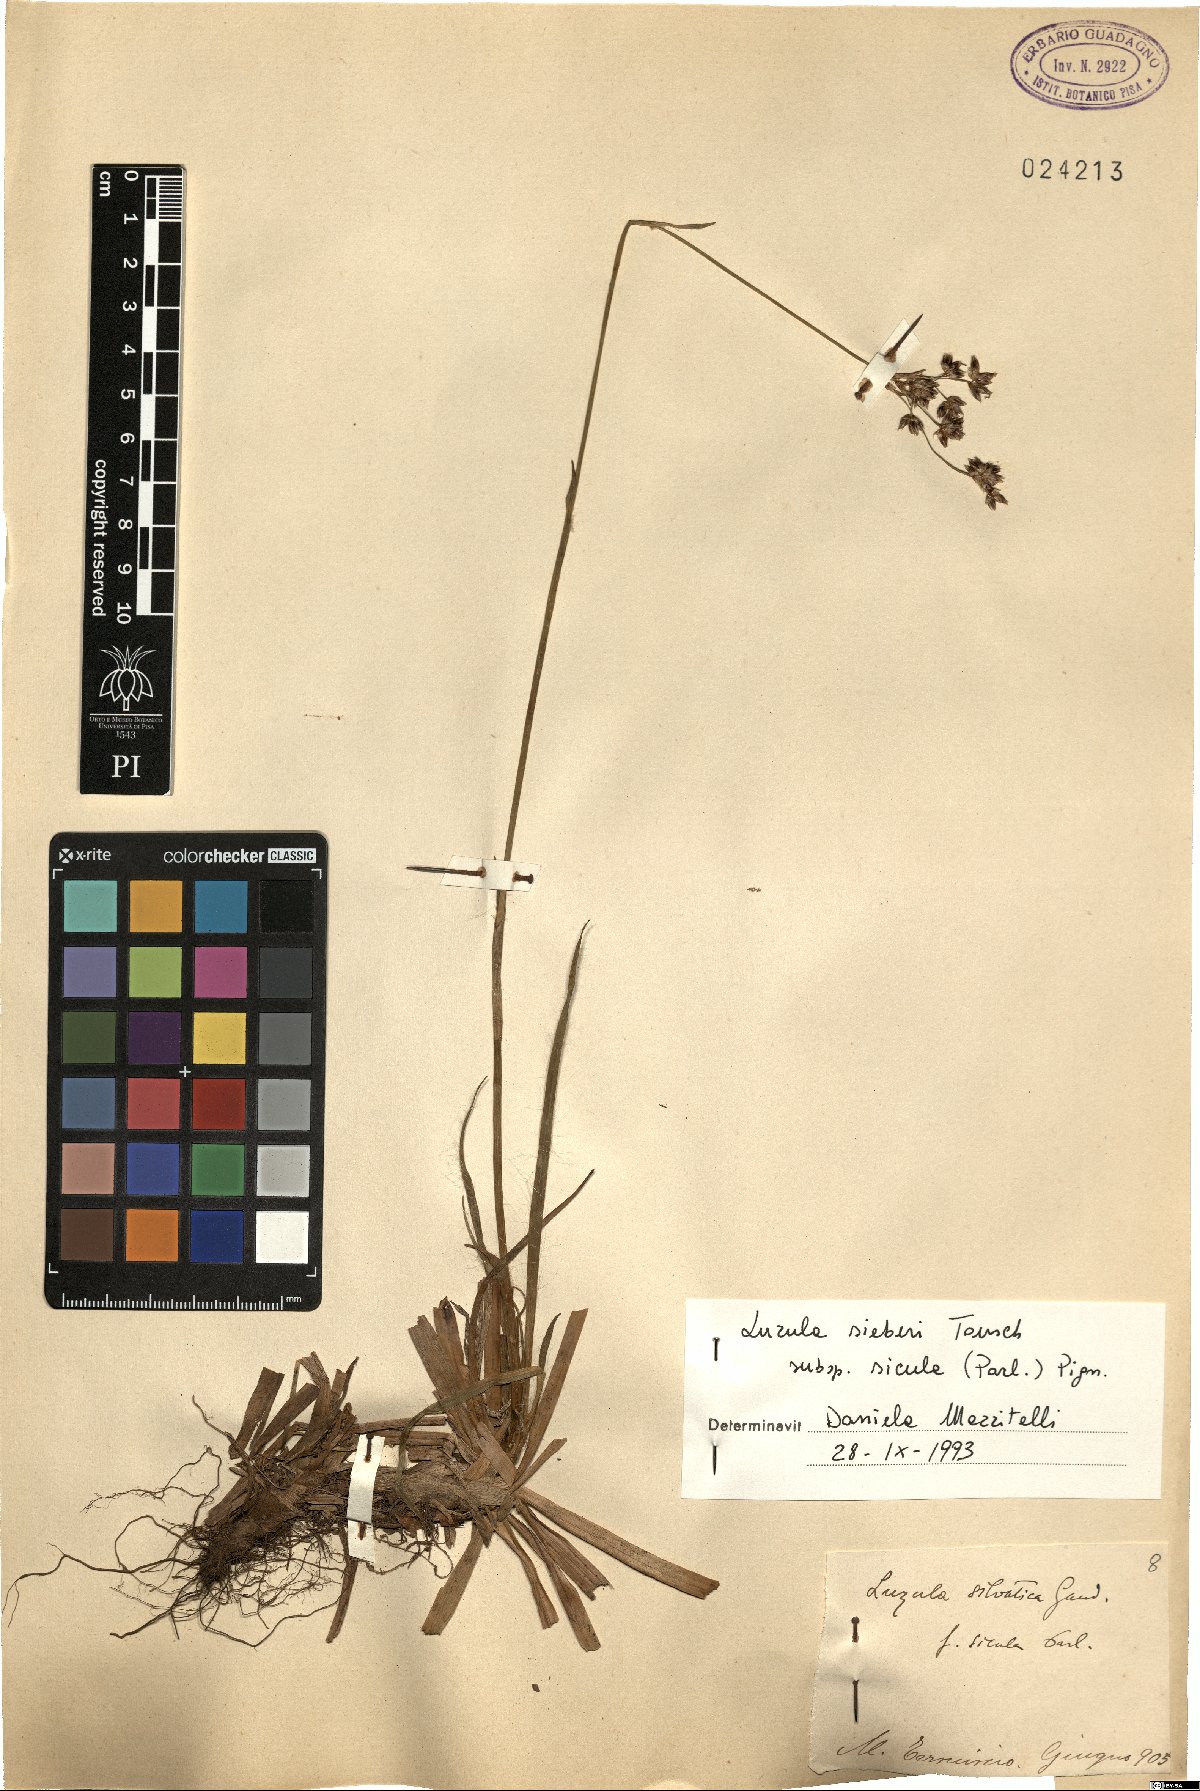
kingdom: Plantae
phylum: Tracheophyta
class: Liliopsida
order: Poales
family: Juncaceae
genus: Luzula
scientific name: Luzula sylvatica
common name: Great wood-rush
